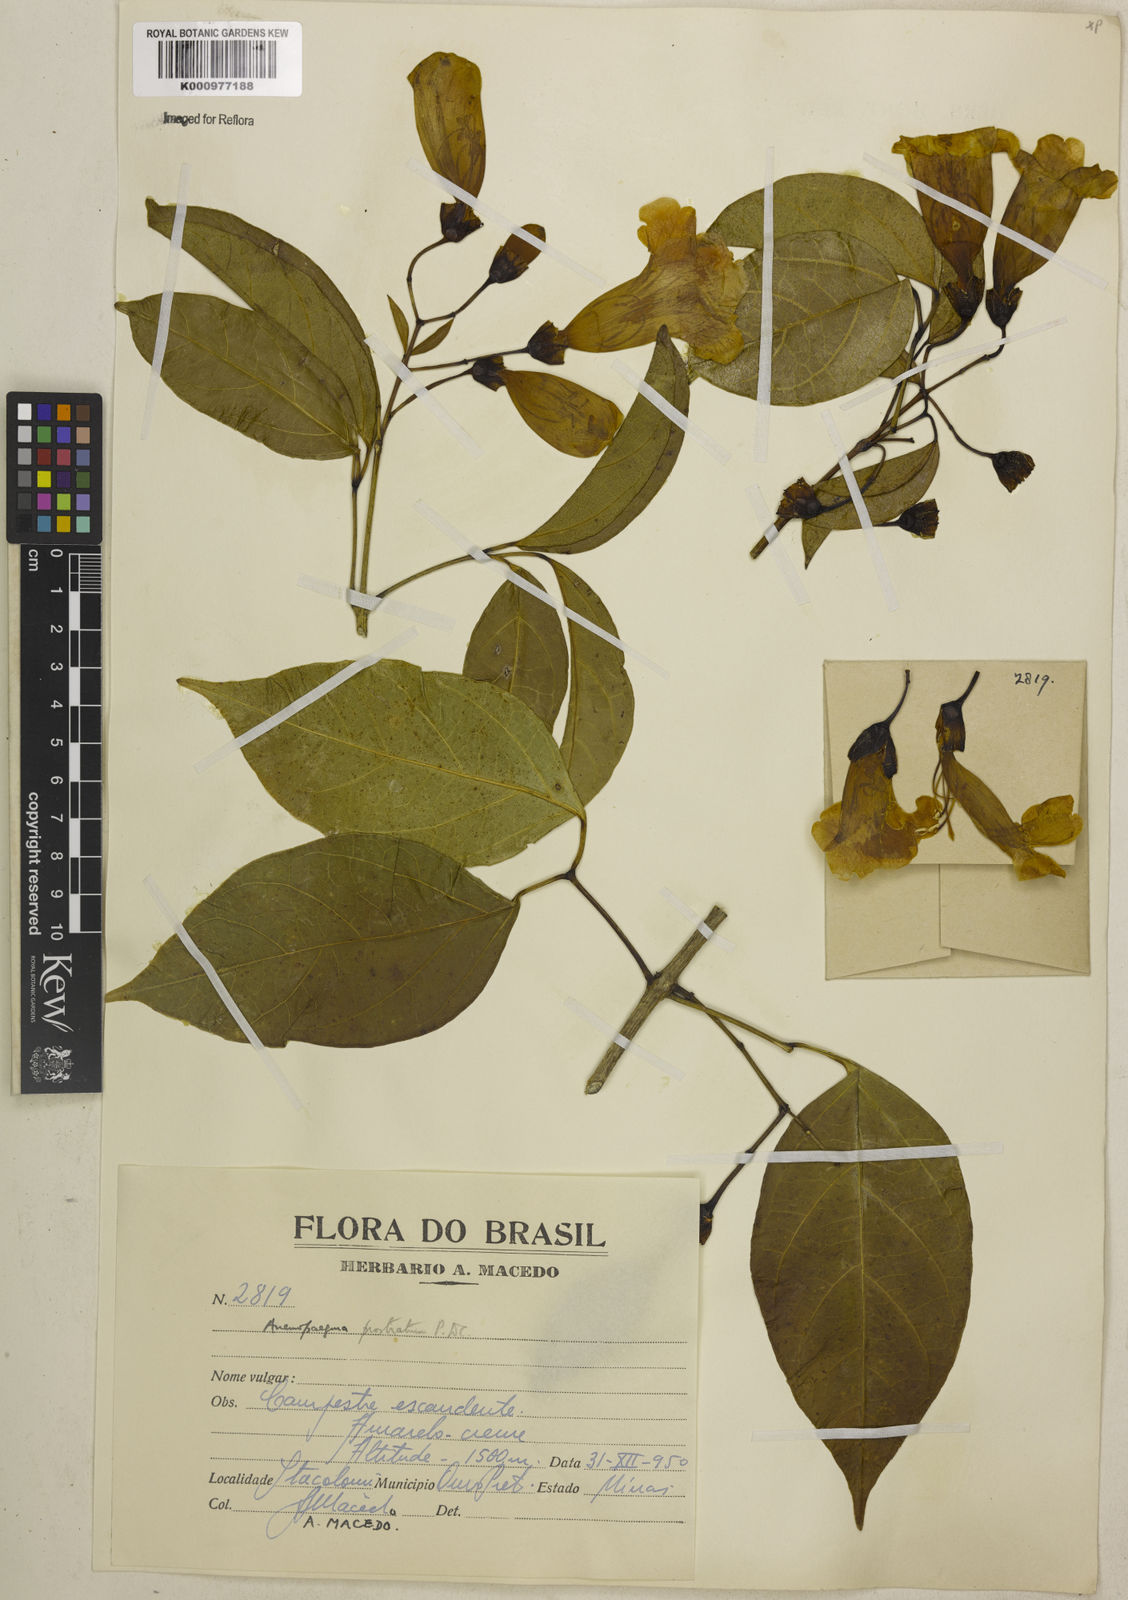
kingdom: Plantae
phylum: Tracheophyta
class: Magnoliopsida
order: Lamiales
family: Bignoniaceae
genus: Anemopaegma
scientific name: Anemopaegma prostratum
